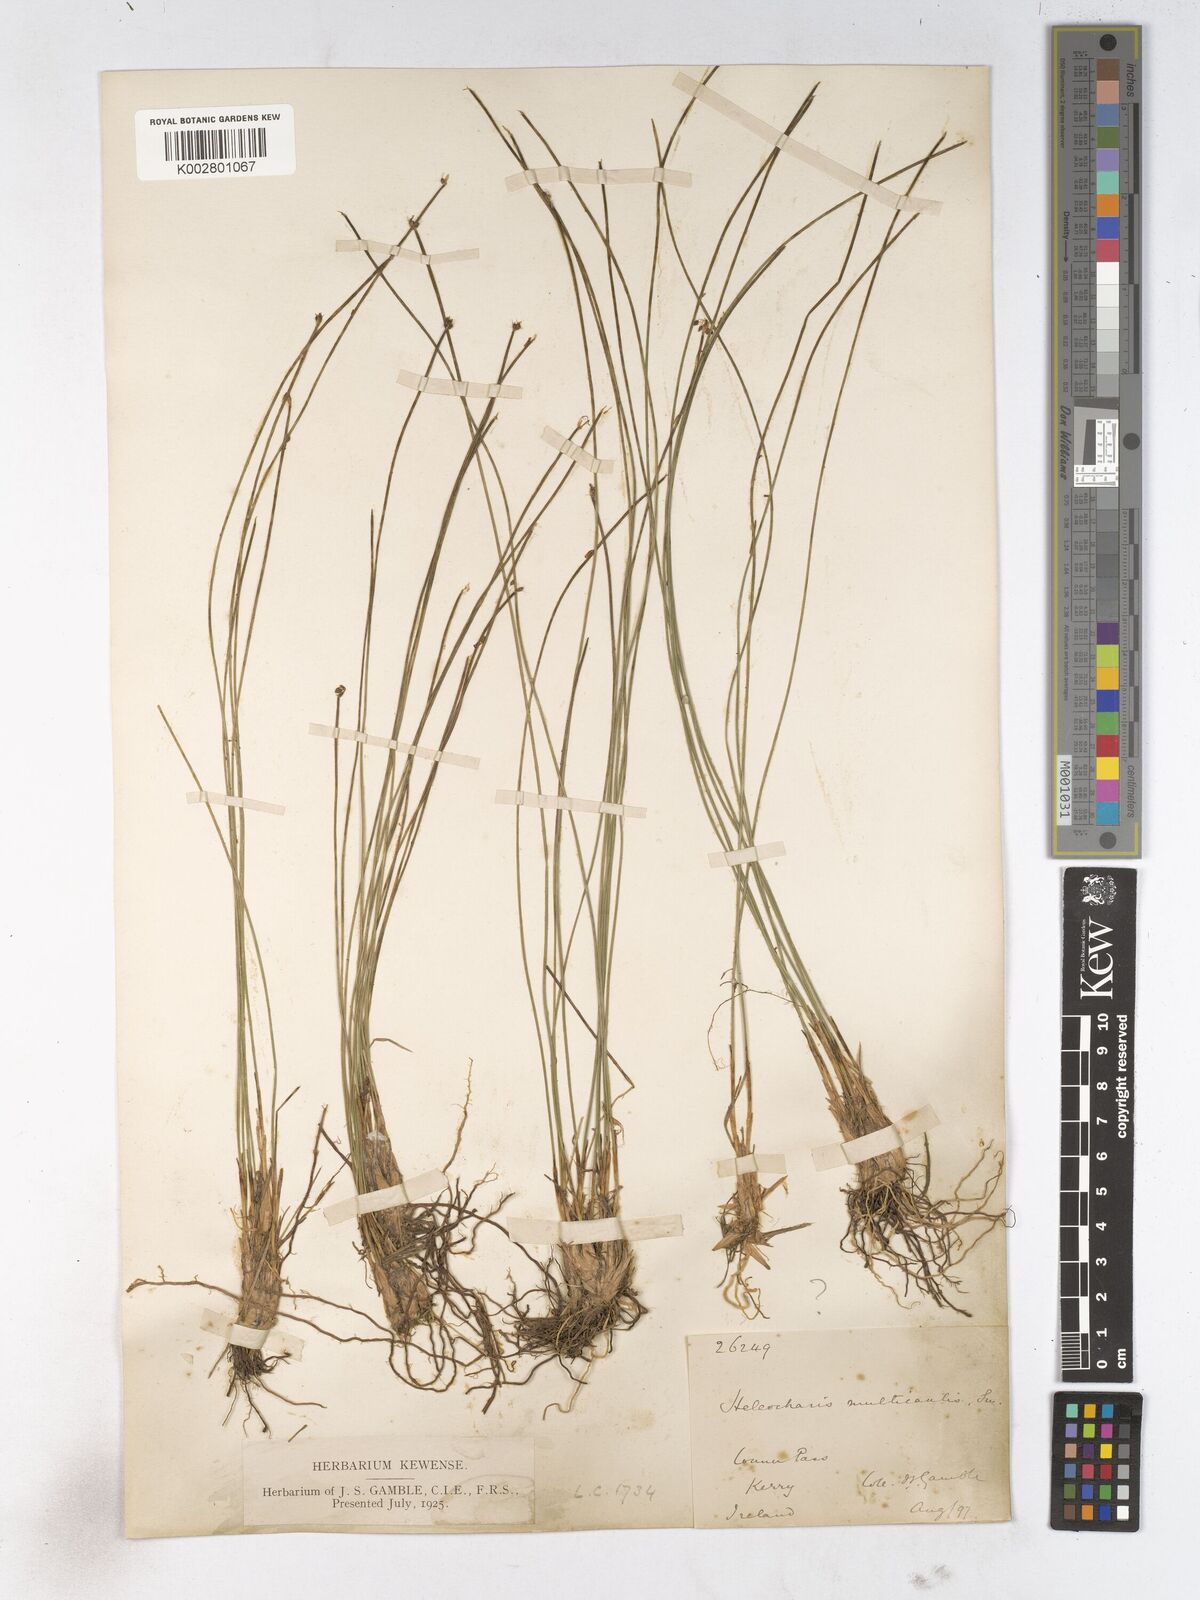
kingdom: Plantae
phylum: Tracheophyta
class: Liliopsida
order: Poales
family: Cyperaceae
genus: Trichophorum
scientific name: Trichophorum cespitosum
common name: Cespitose bulrush
